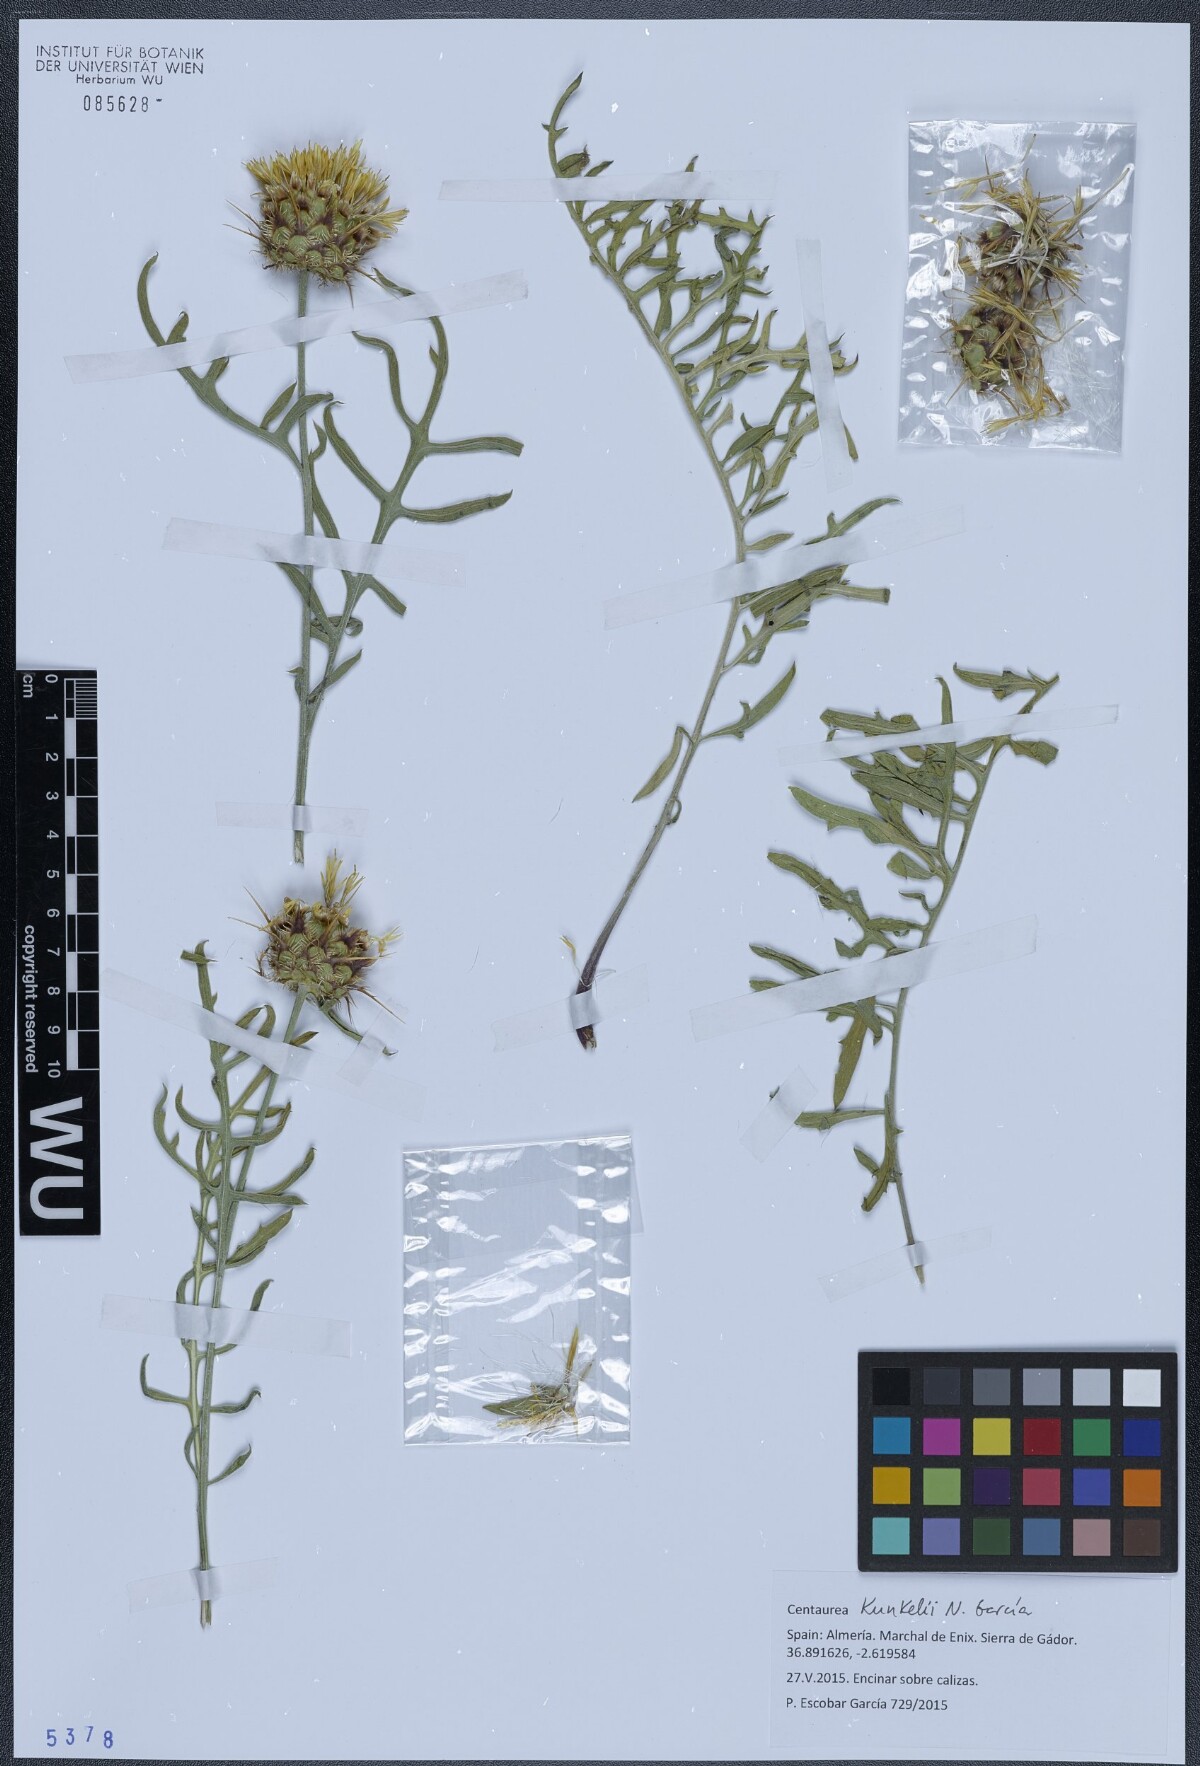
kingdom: Plantae
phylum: Tracheophyta
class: Magnoliopsida
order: Asterales
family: Asteraceae
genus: Centaurea
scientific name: Centaurea kunkelii
